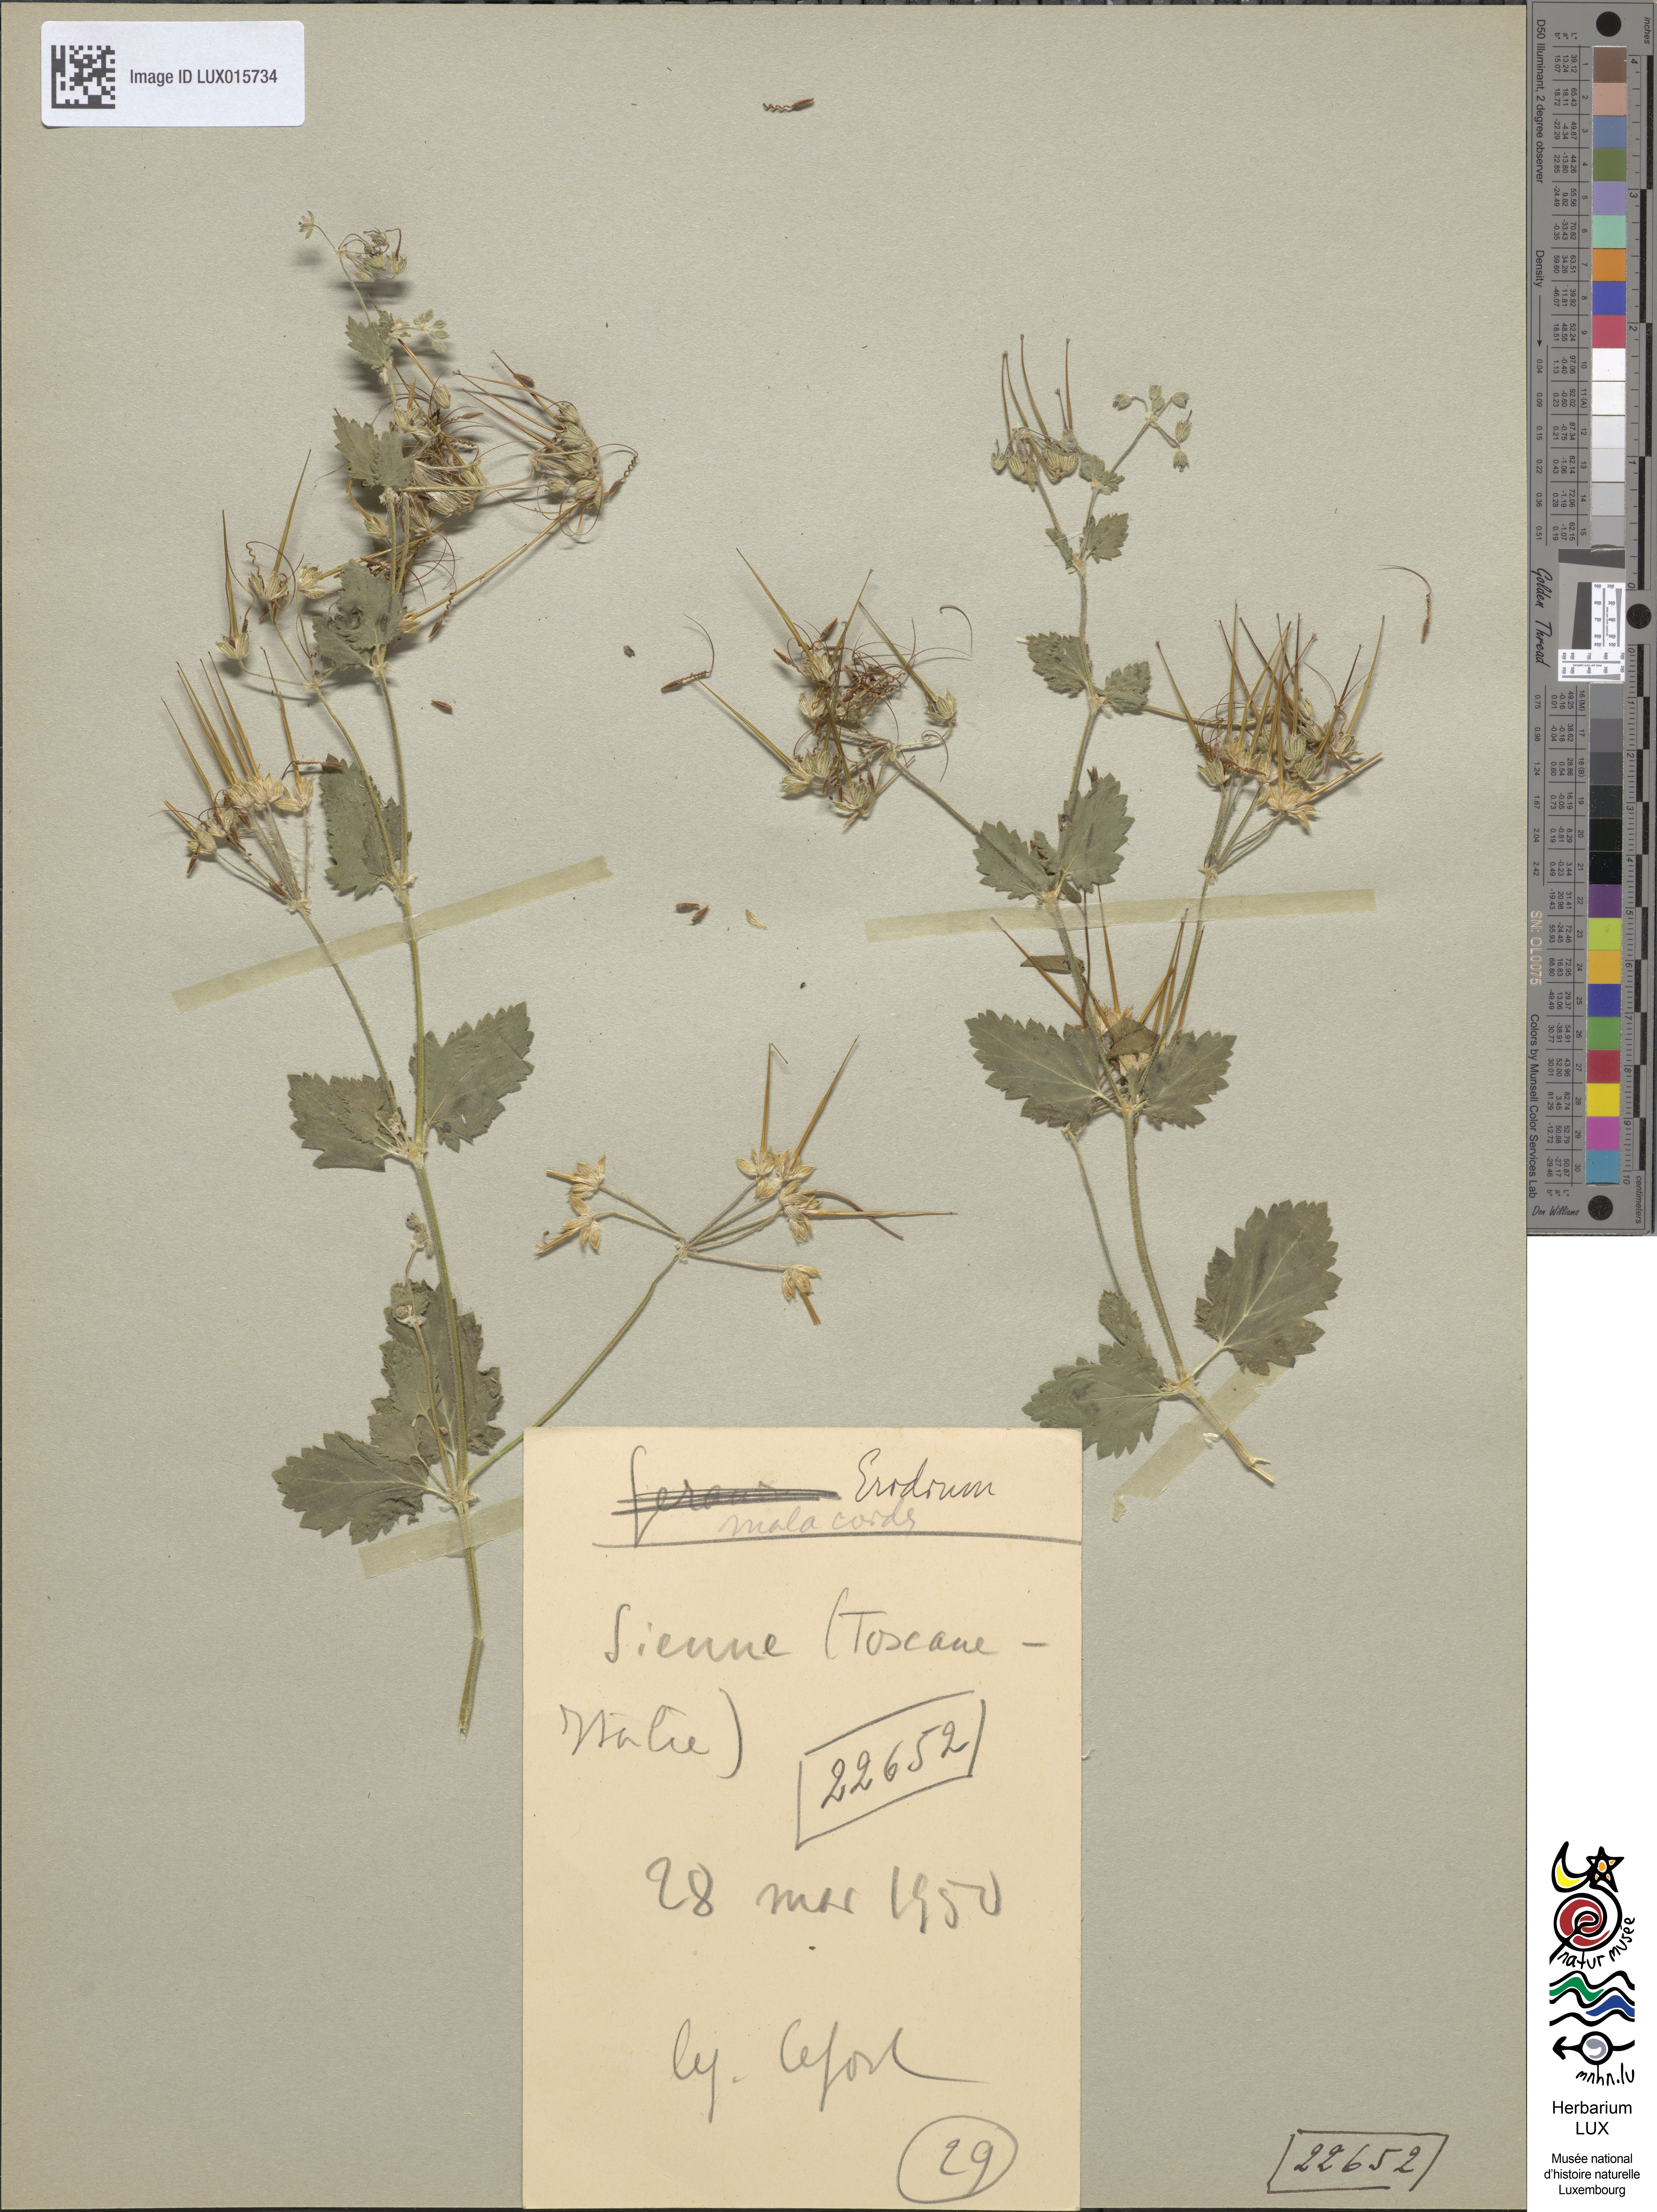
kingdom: Plantae
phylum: Tracheophyta
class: Magnoliopsida
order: Geraniales
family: Geraniaceae
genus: Erodium
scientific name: Erodium malacoides
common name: Soft stork's-bill
